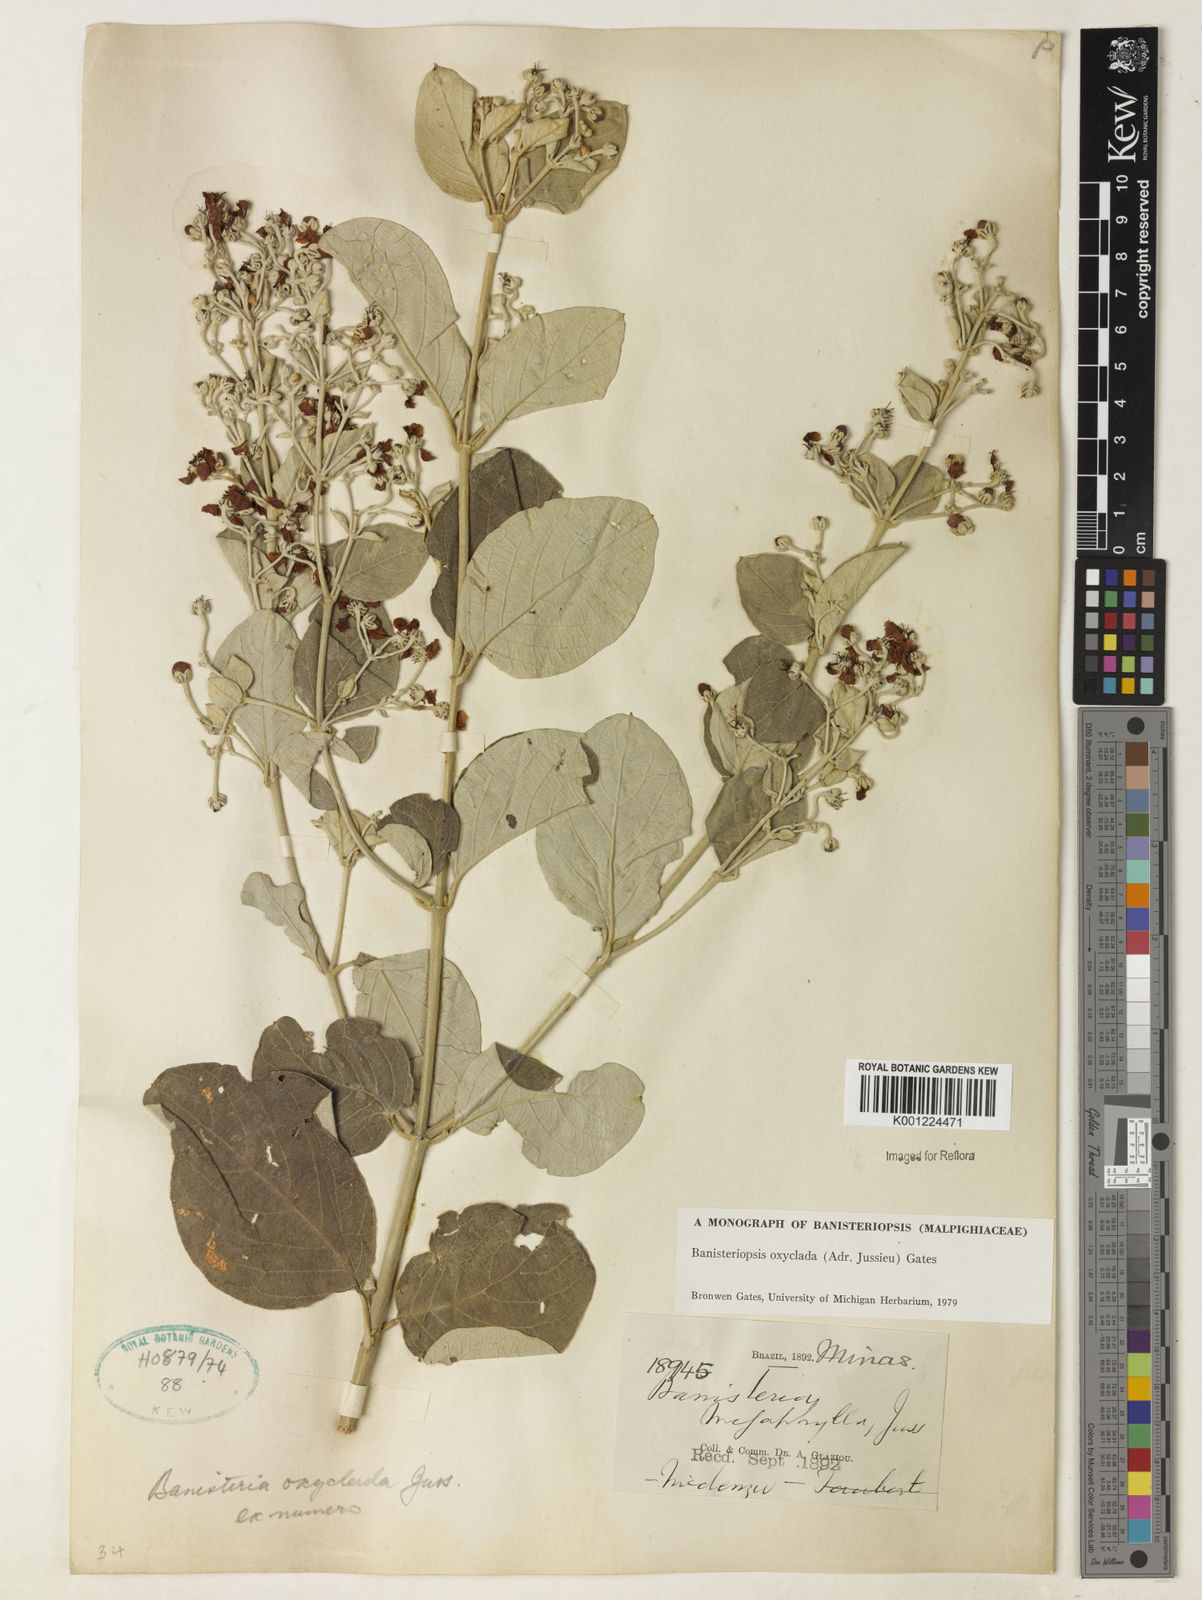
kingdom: Plantae
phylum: Tracheophyta
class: Magnoliopsida
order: Malpighiales
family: Malpighiaceae
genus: Banisteriopsis
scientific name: Banisteriopsis oxyclada
